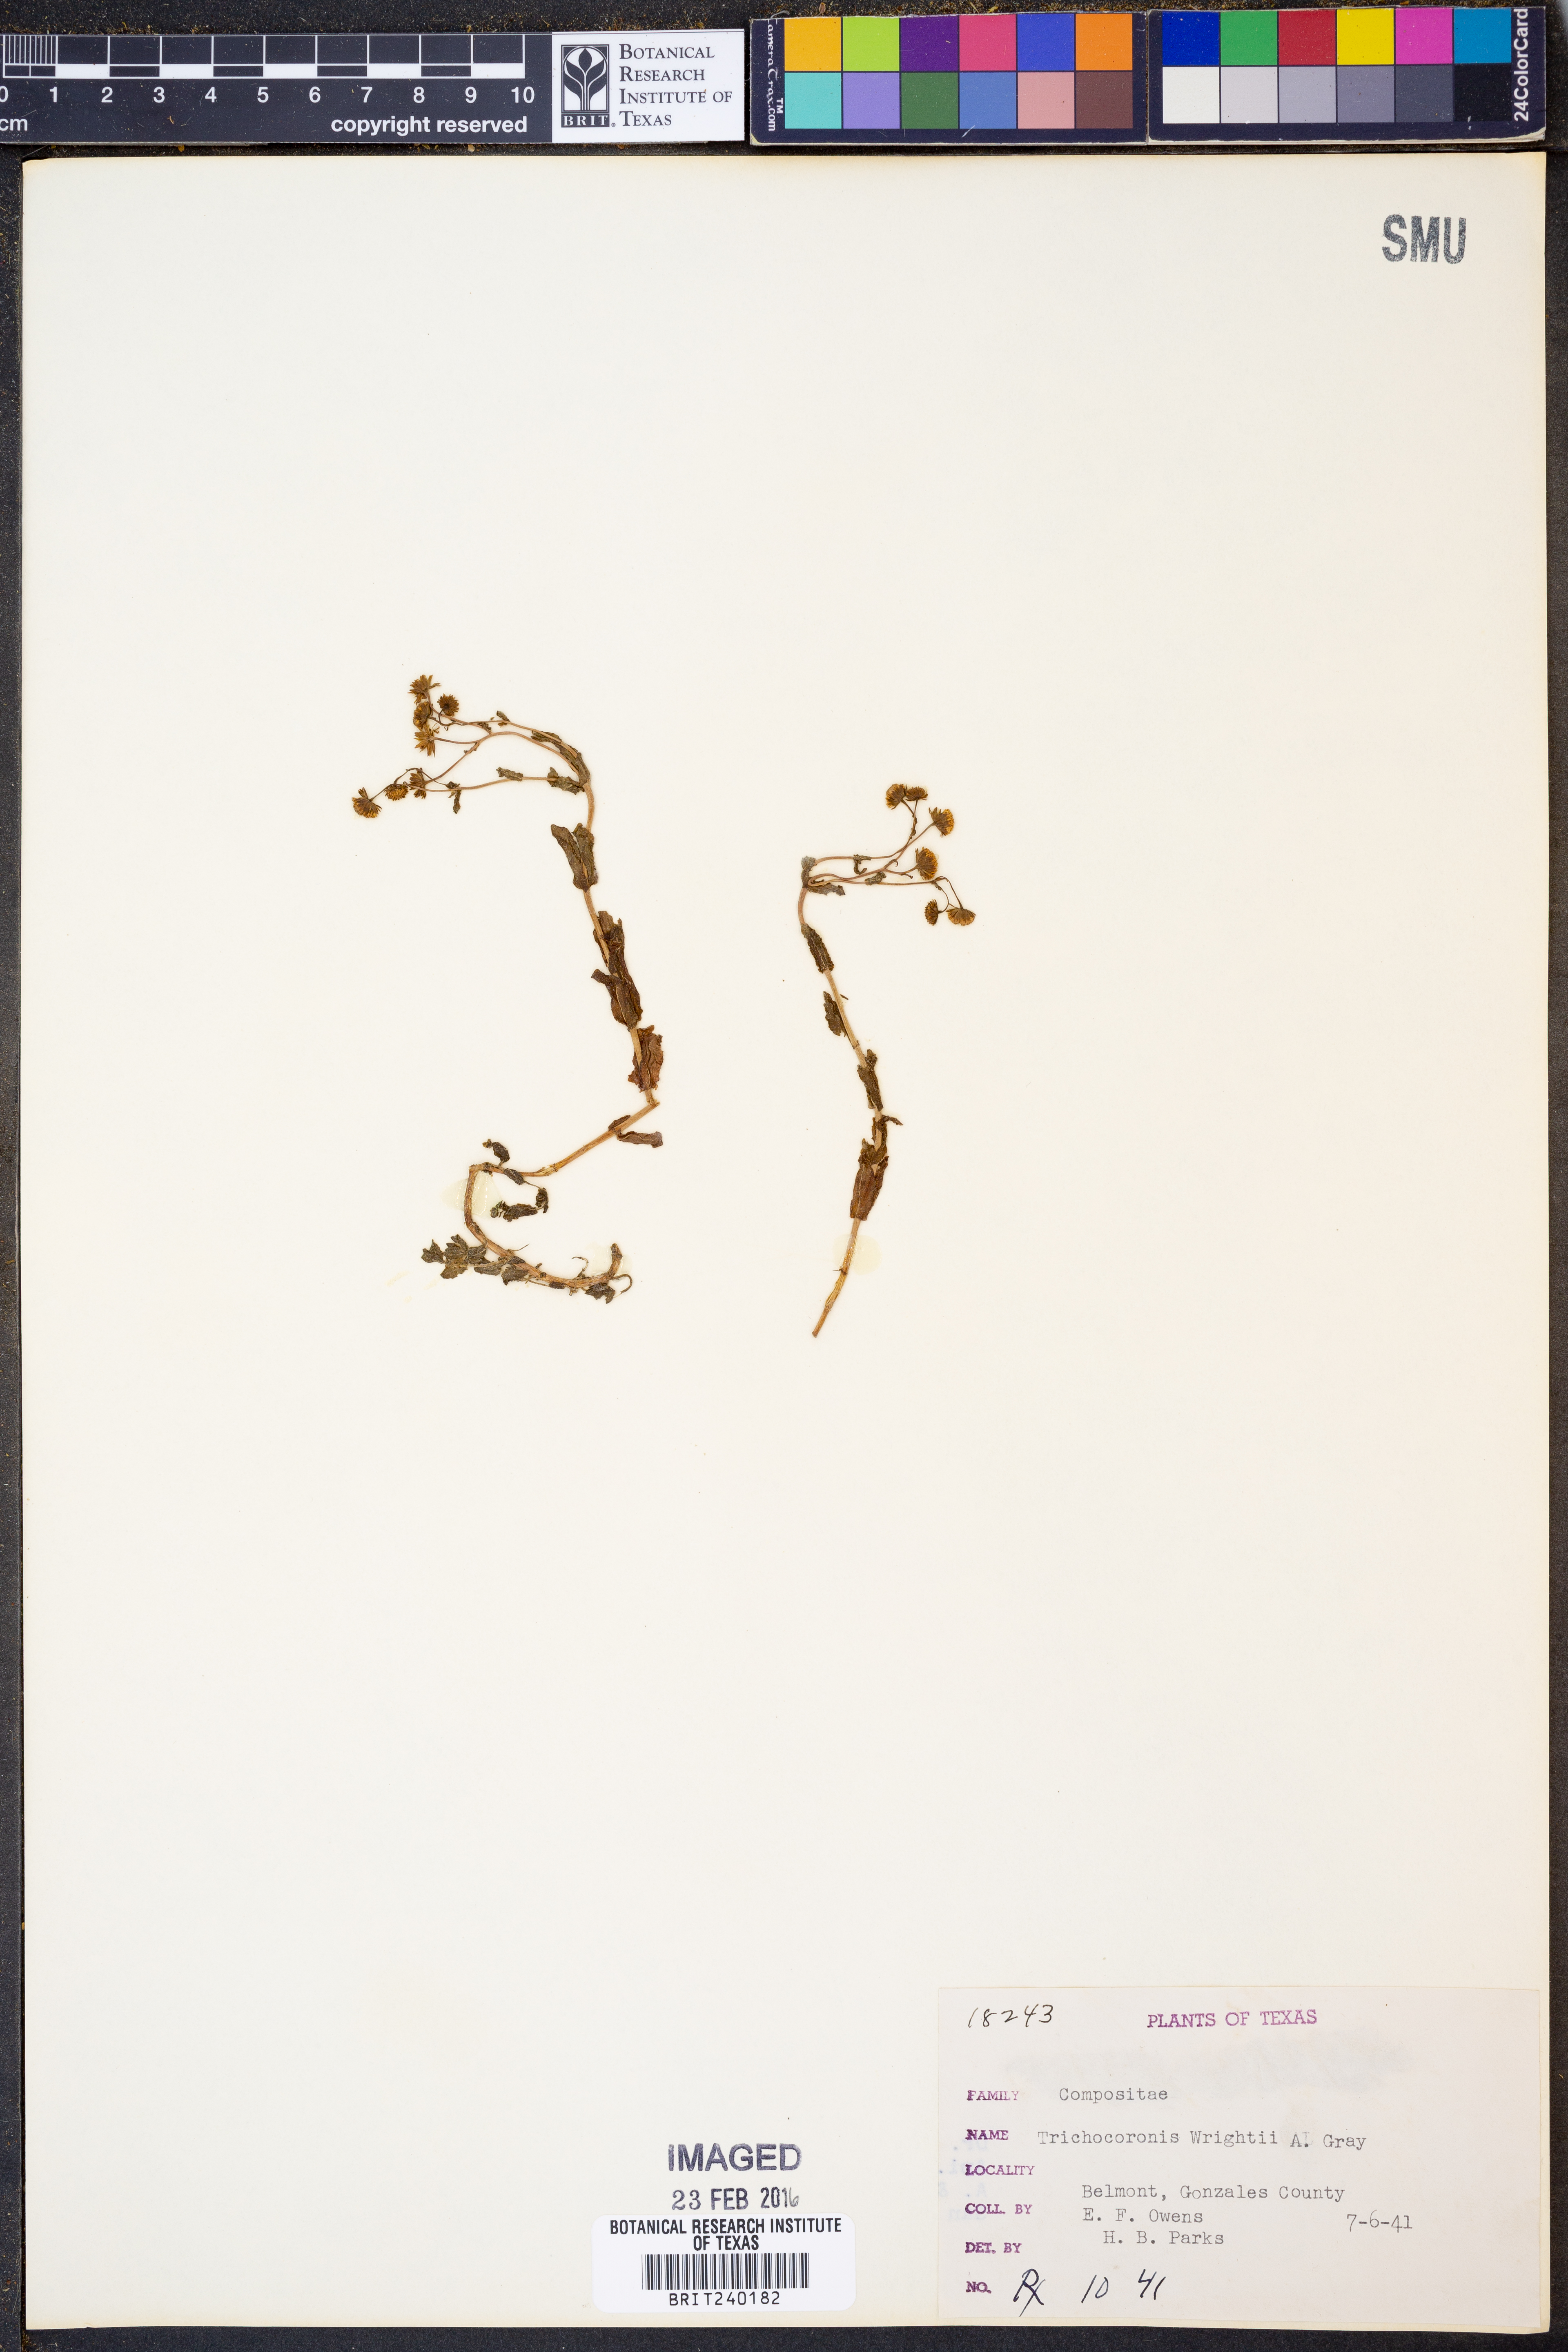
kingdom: Plantae
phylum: Tracheophyta
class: Magnoliopsida
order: Asterales
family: Asteraceae
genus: Trichocoronis
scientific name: Trichocoronis wrightii
